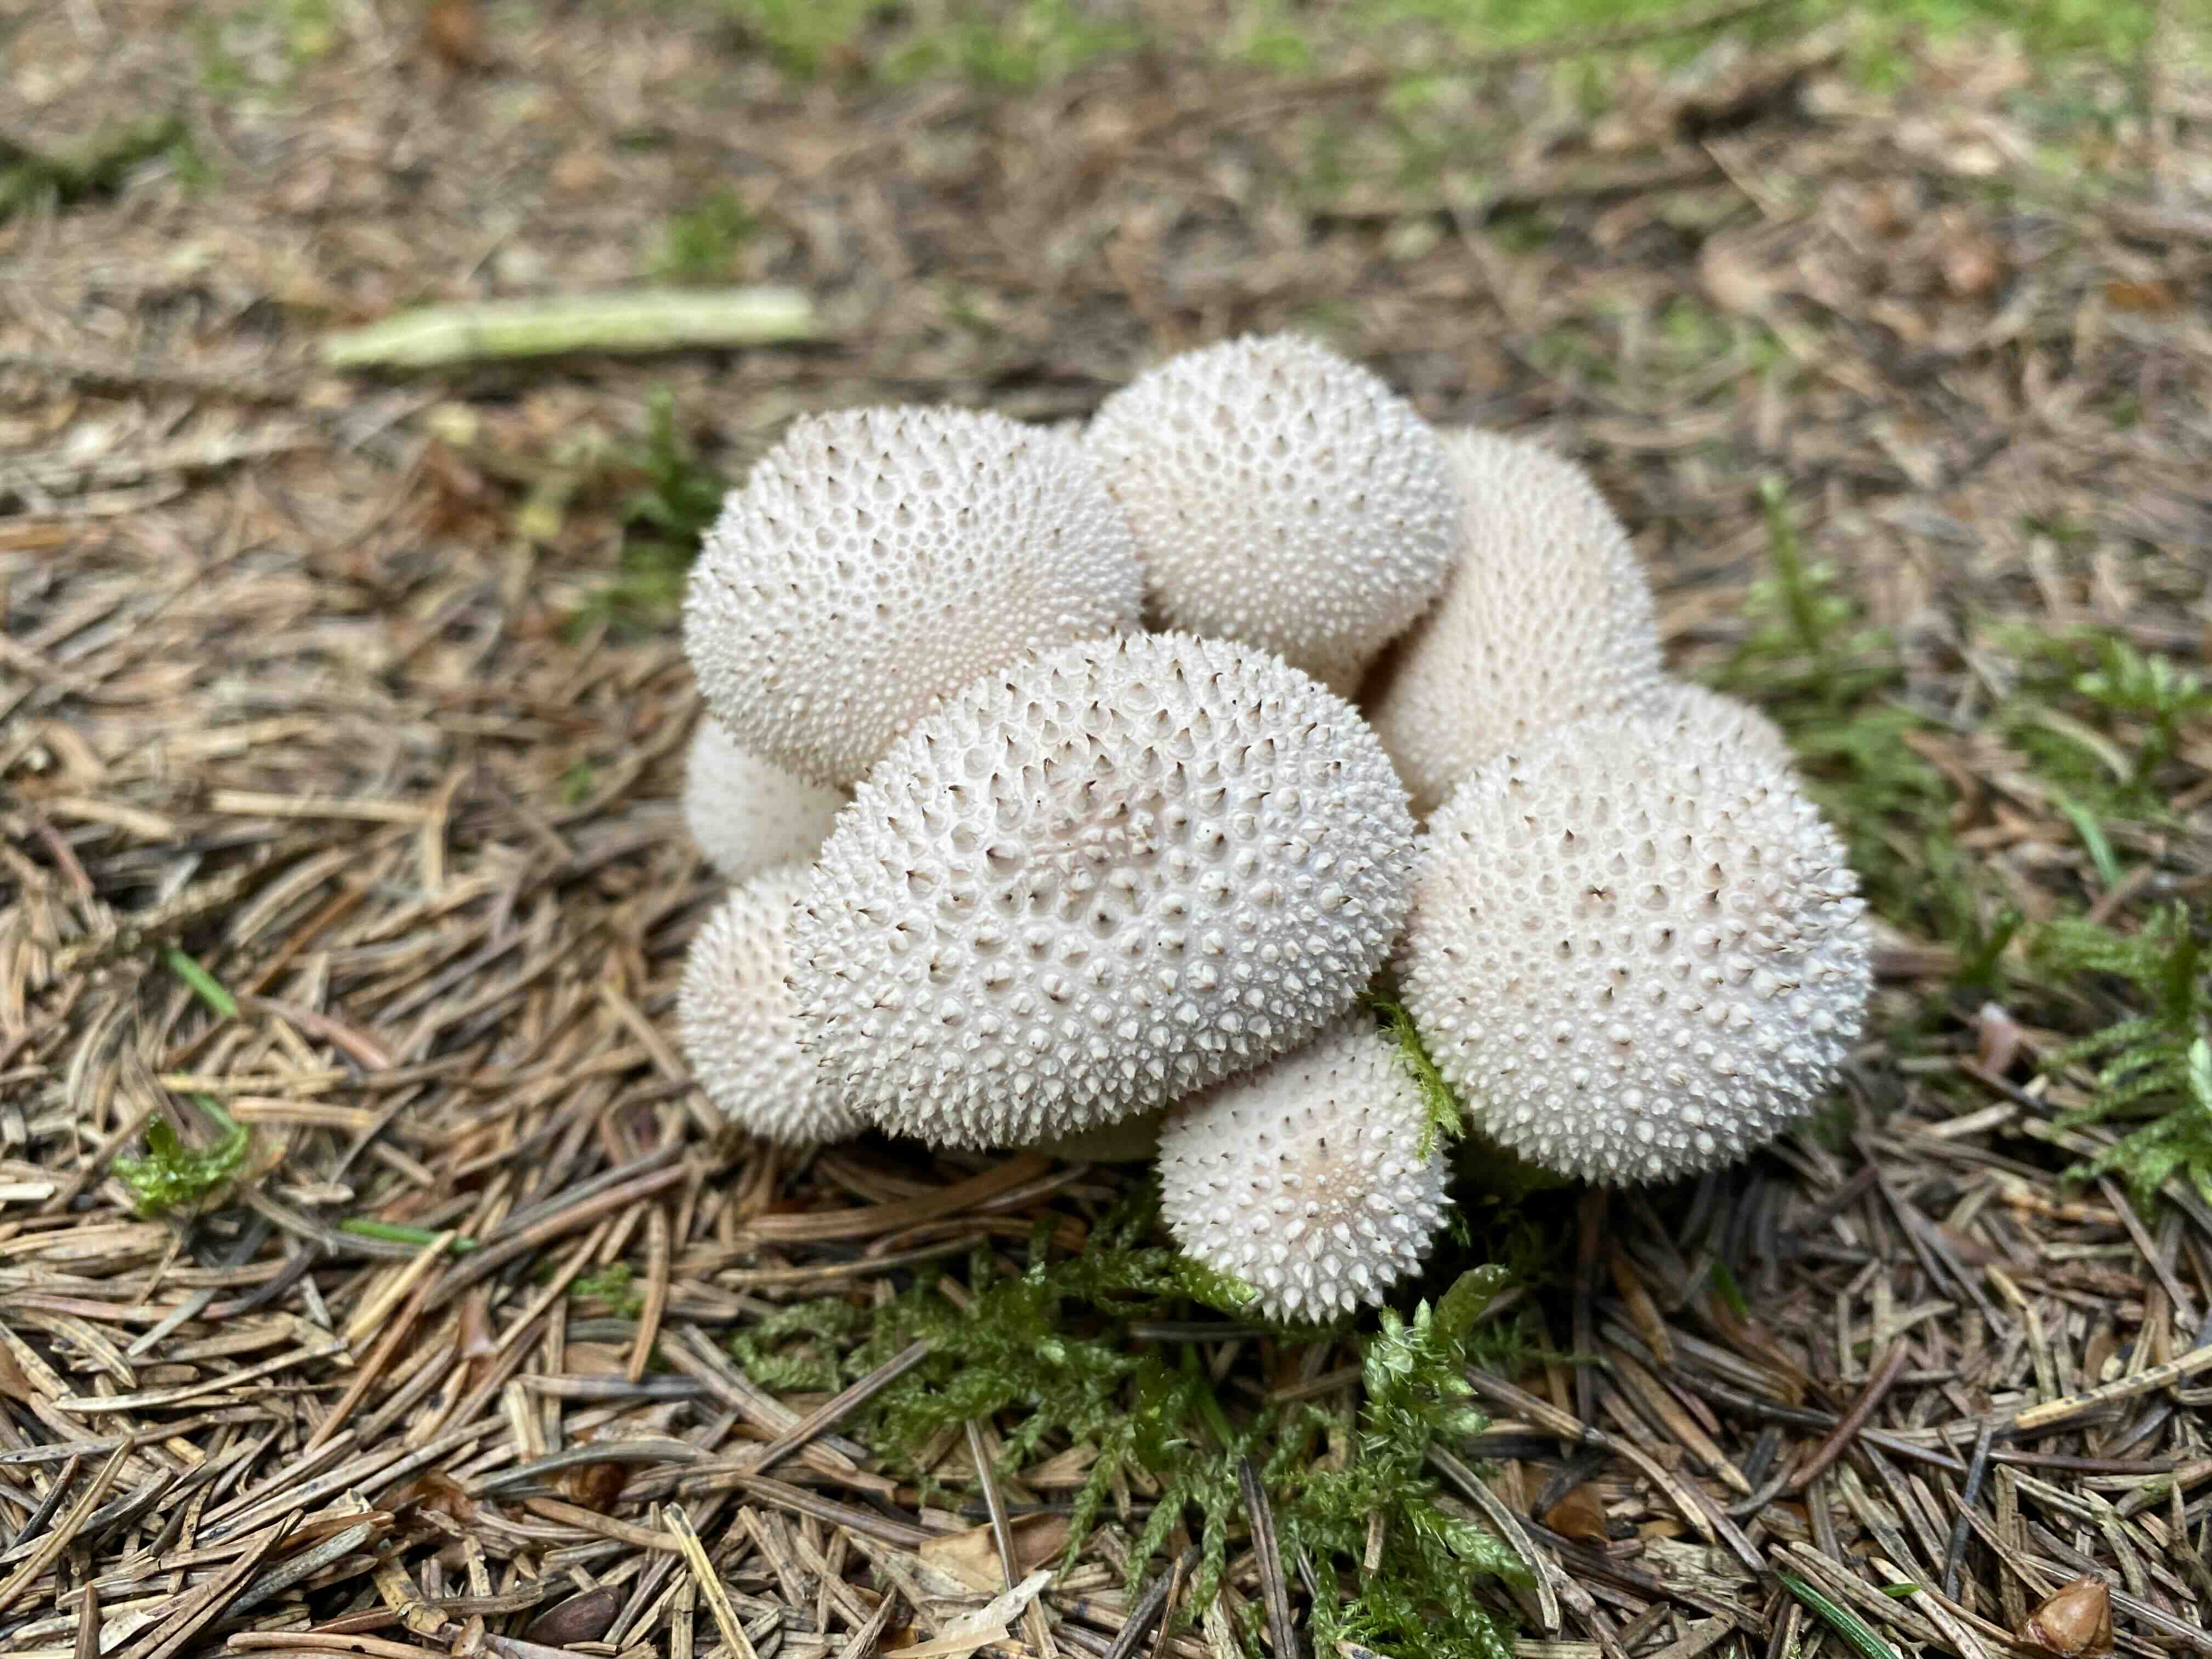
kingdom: Fungi
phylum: Basidiomycota
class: Agaricomycetes
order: Agaricales
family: Lycoperdaceae
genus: Lycoperdon
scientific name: Lycoperdon perlatum
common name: krystal-støvbold
